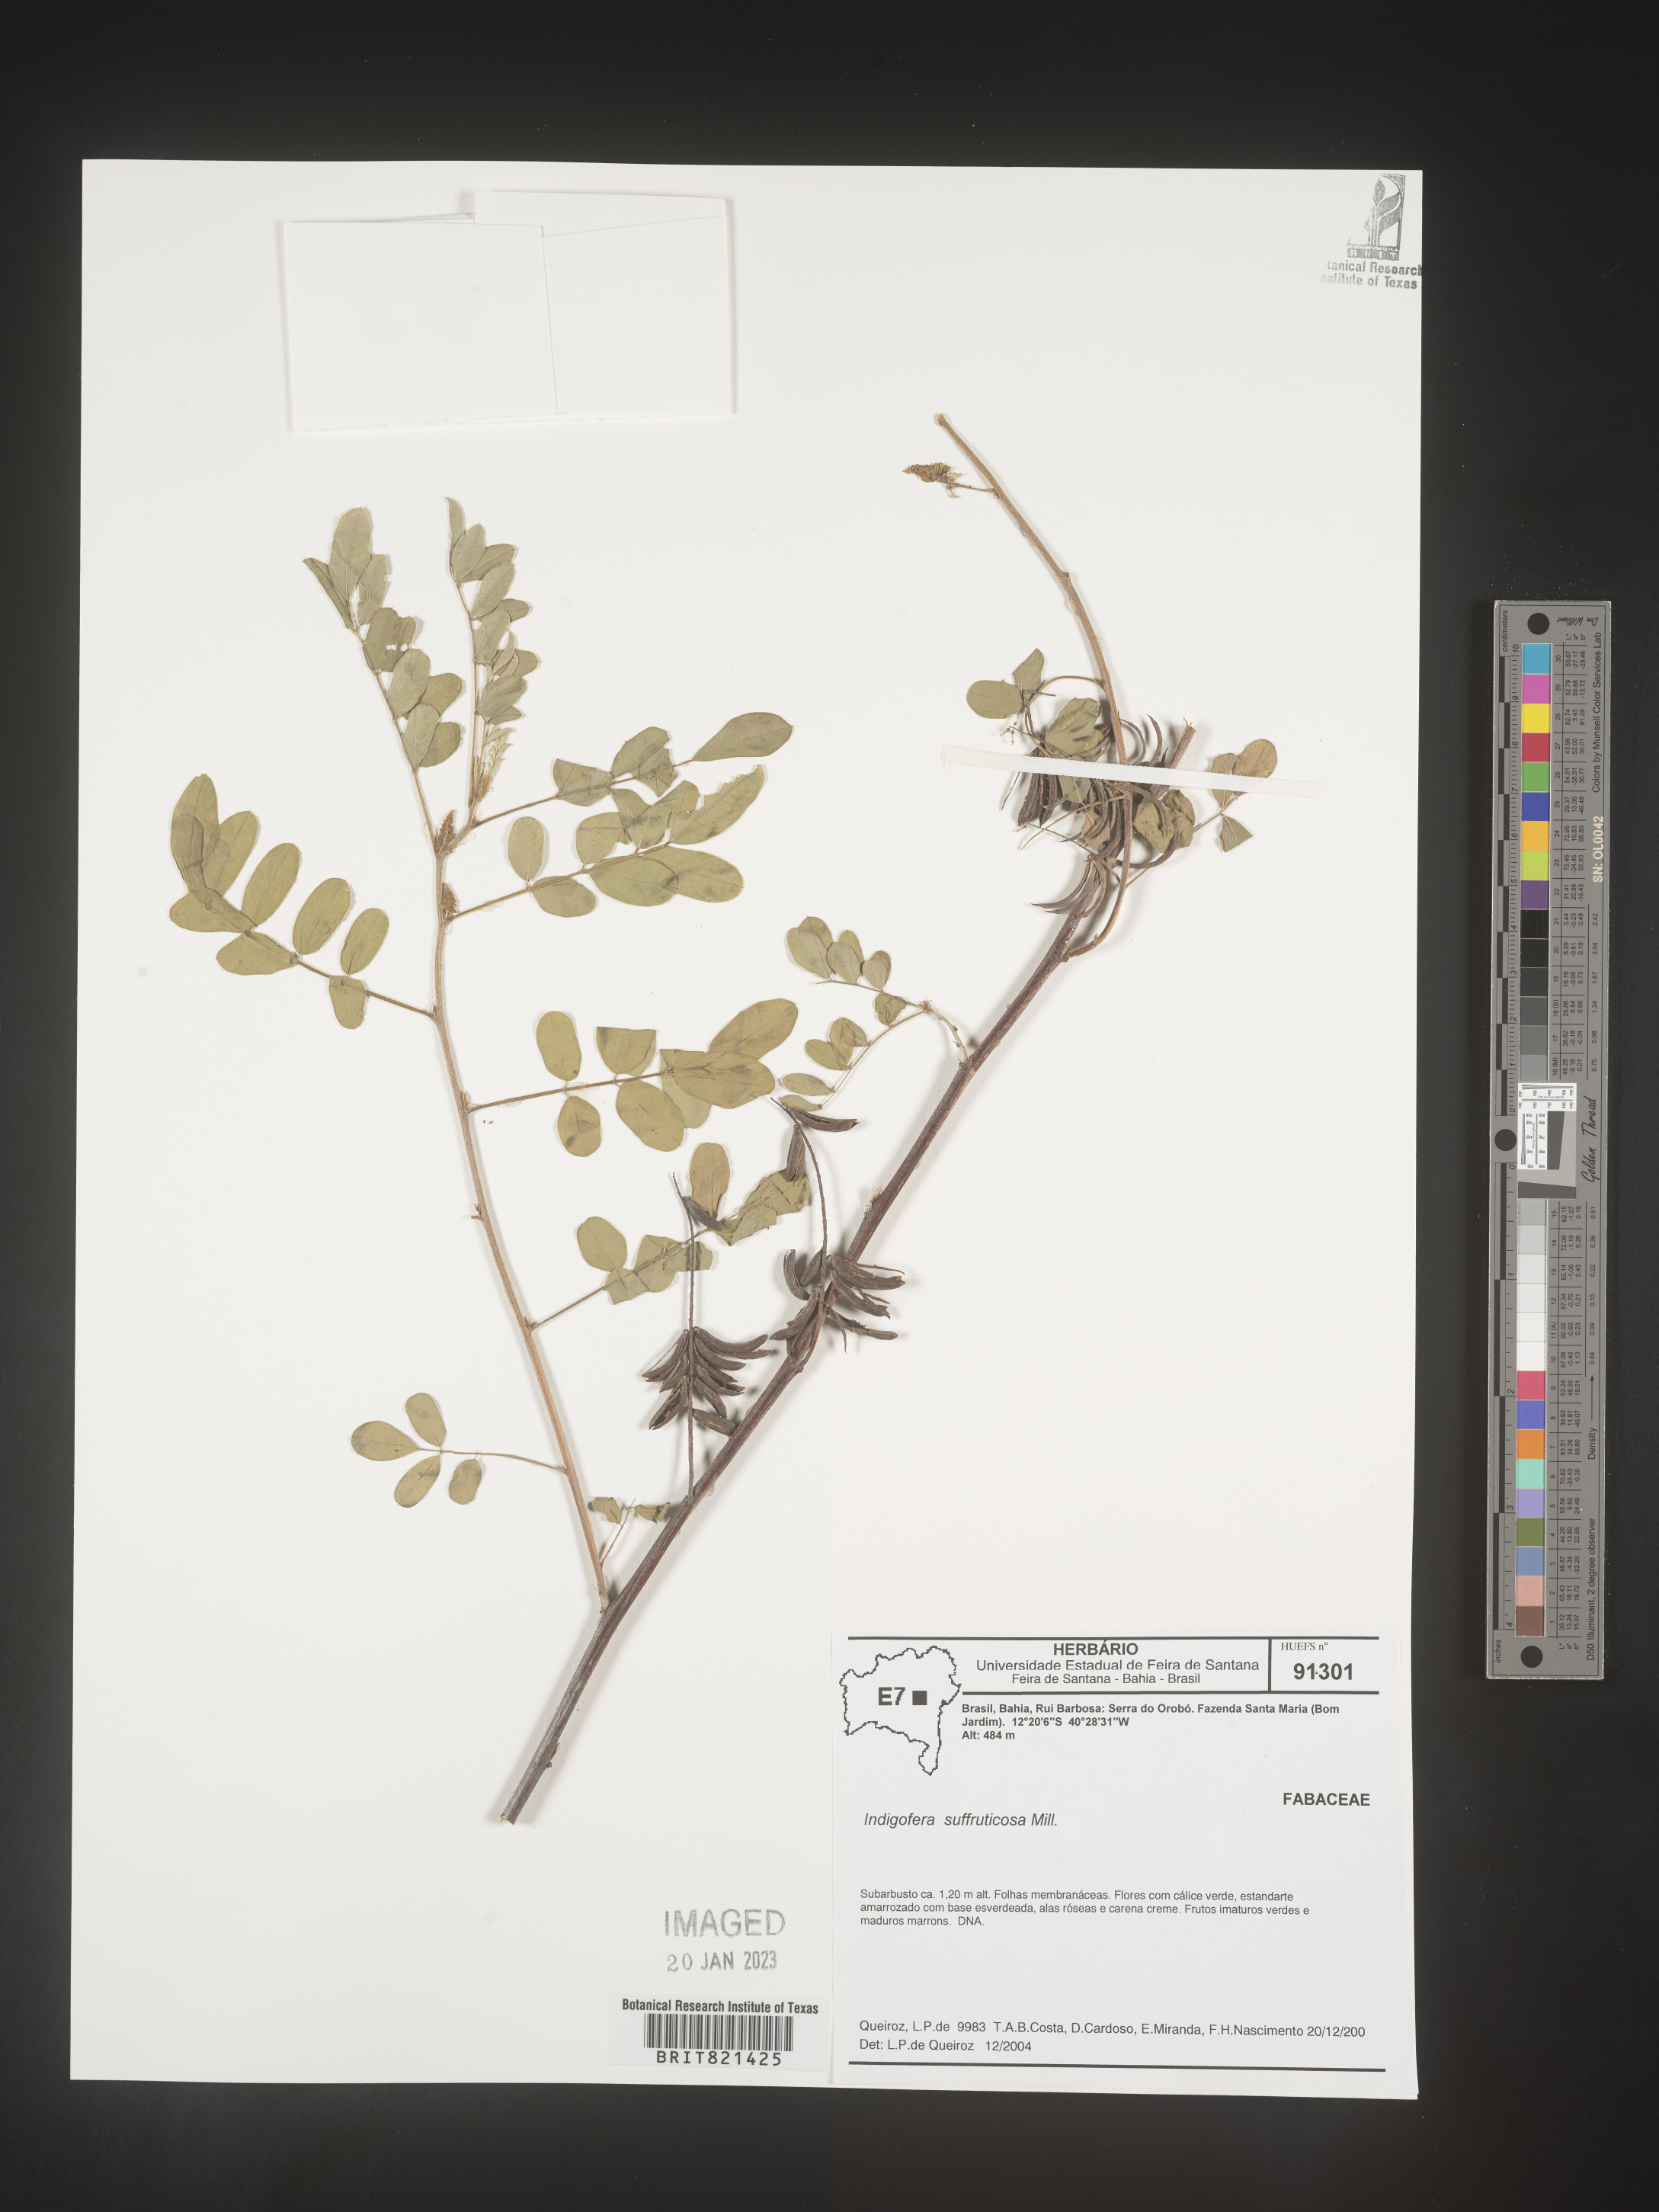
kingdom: Plantae
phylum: Tracheophyta
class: Magnoliopsida
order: Fabales
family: Fabaceae
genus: Indigofera
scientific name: Indigofera
